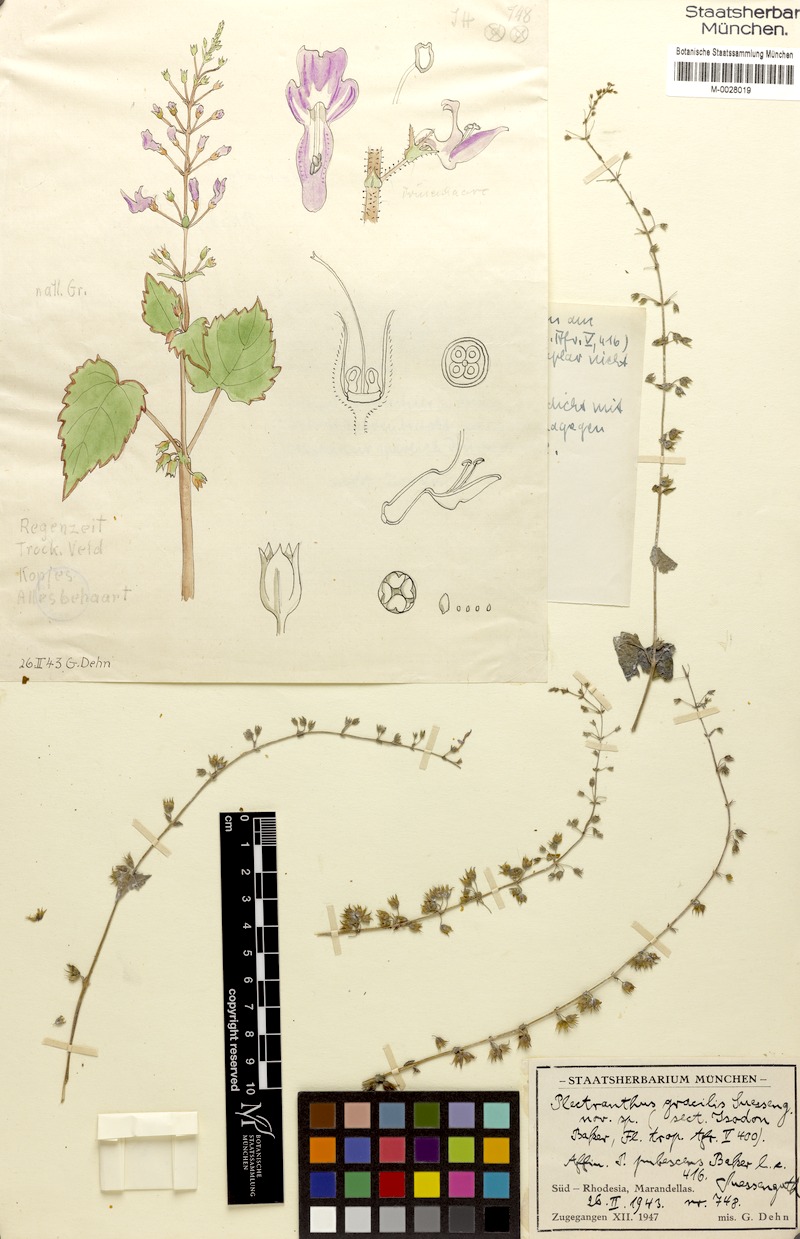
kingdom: Plantae
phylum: Tracheophyta
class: Magnoliopsida
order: Lamiales
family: Lamiaceae
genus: Equilabium
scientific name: Equilabium gracile
